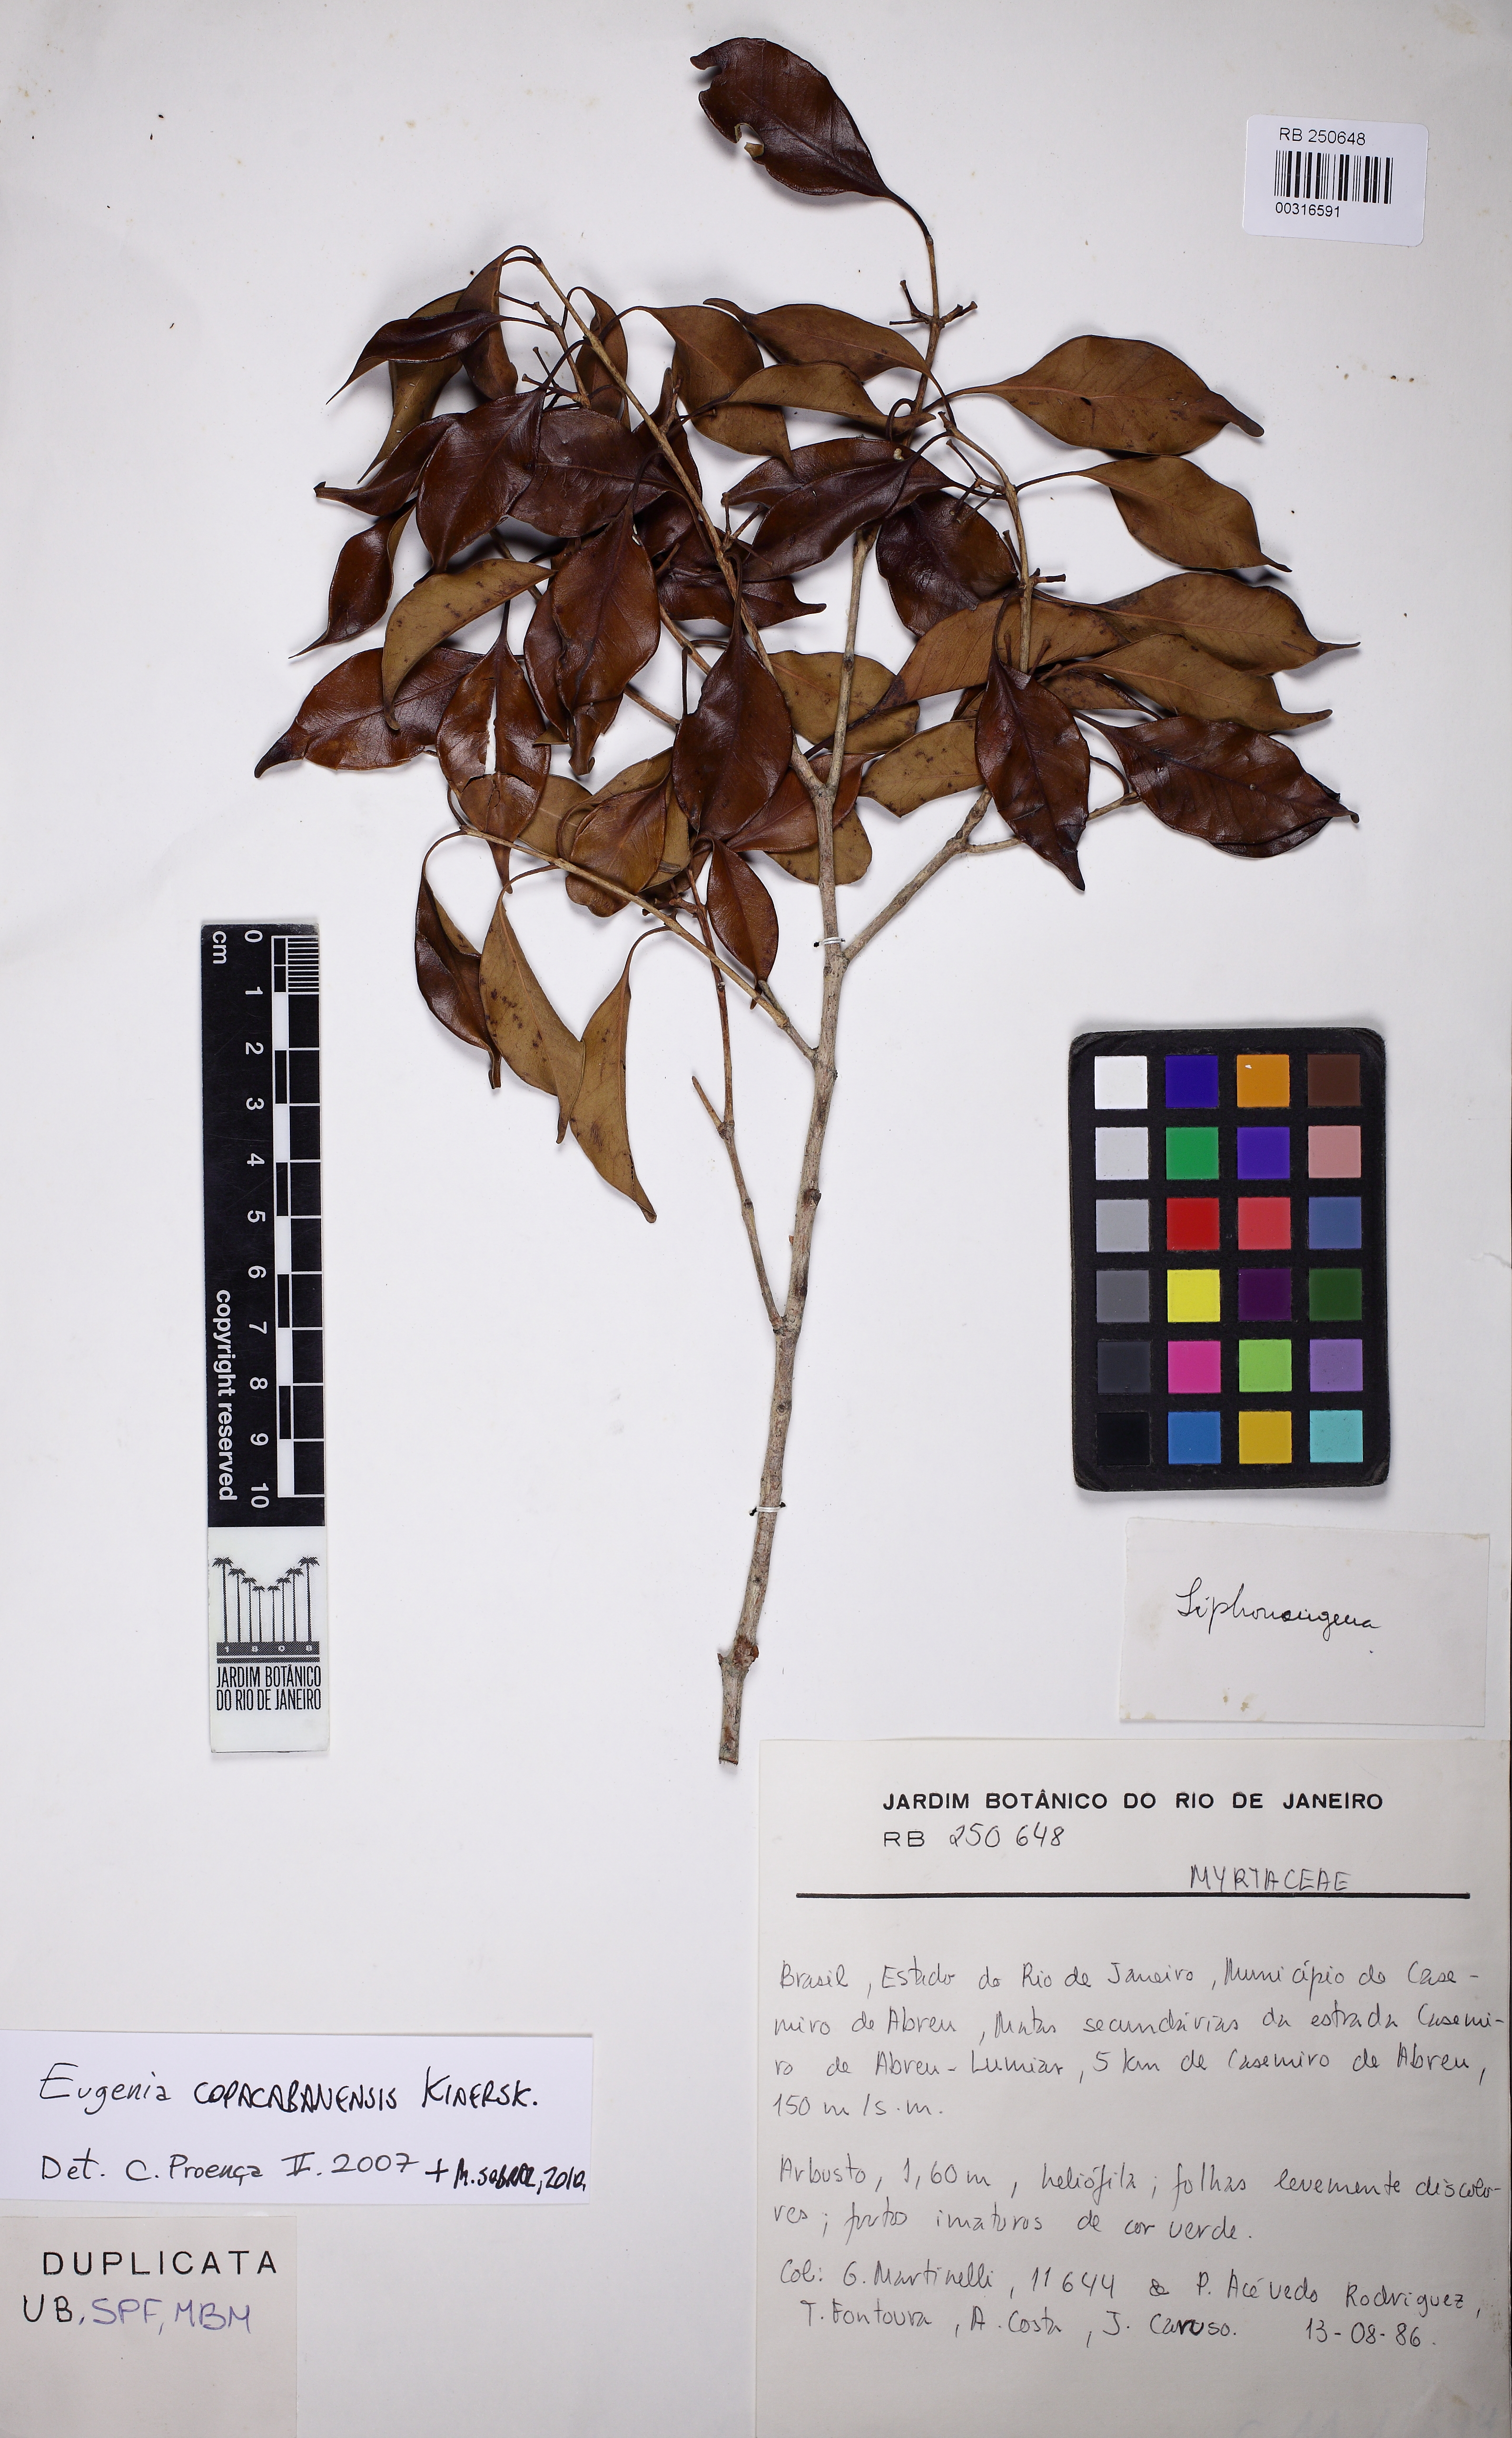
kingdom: Plantae
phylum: Tracheophyta
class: Magnoliopsida
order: Myrtales
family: Myrtaceae
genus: Eugenia
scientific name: Eugenia copacabanensis
